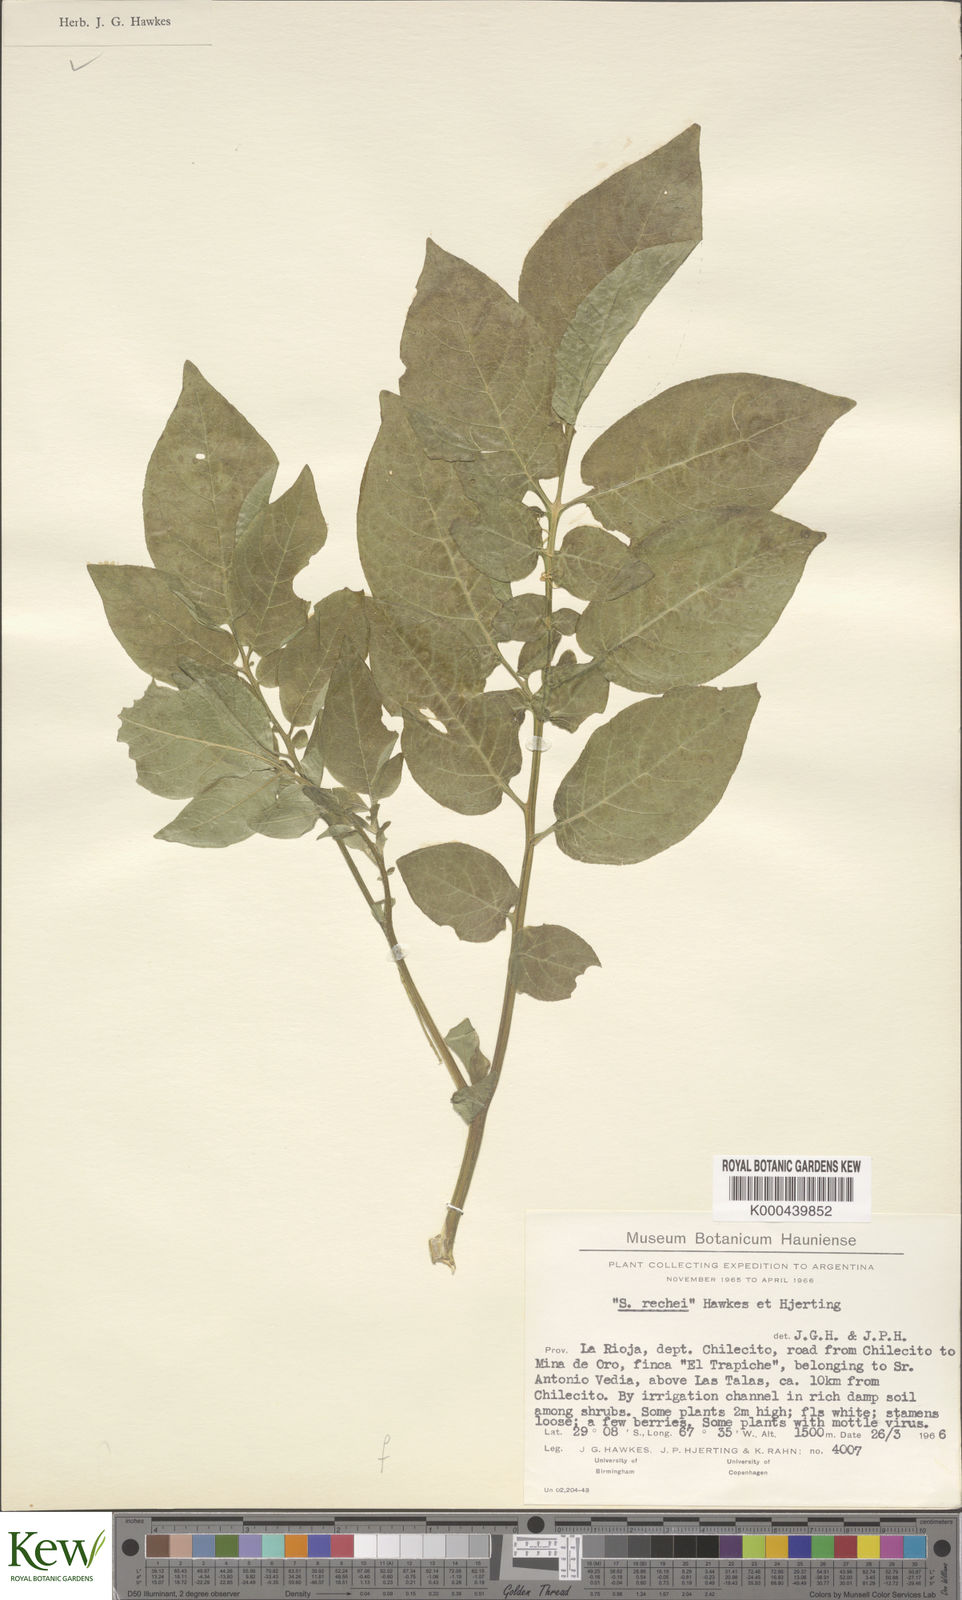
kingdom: Plantae
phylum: Tracheophyta
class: Magnoliopsida
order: Solanales
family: Solanaceae
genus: Solanum
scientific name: Solanum microdontum
